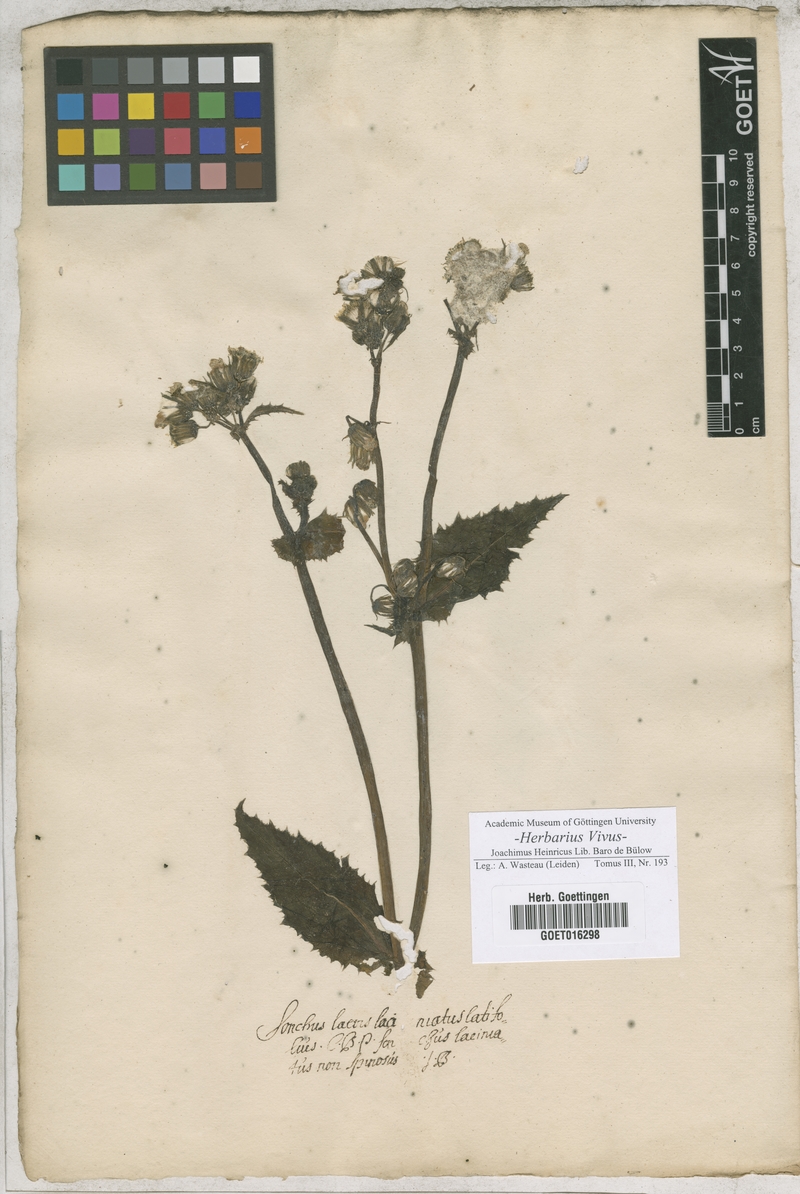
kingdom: Plantae
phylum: Tracheophyta
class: Magnoliopsida
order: Asterales
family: Asteraceae
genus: Sonchus
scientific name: Sonchus
